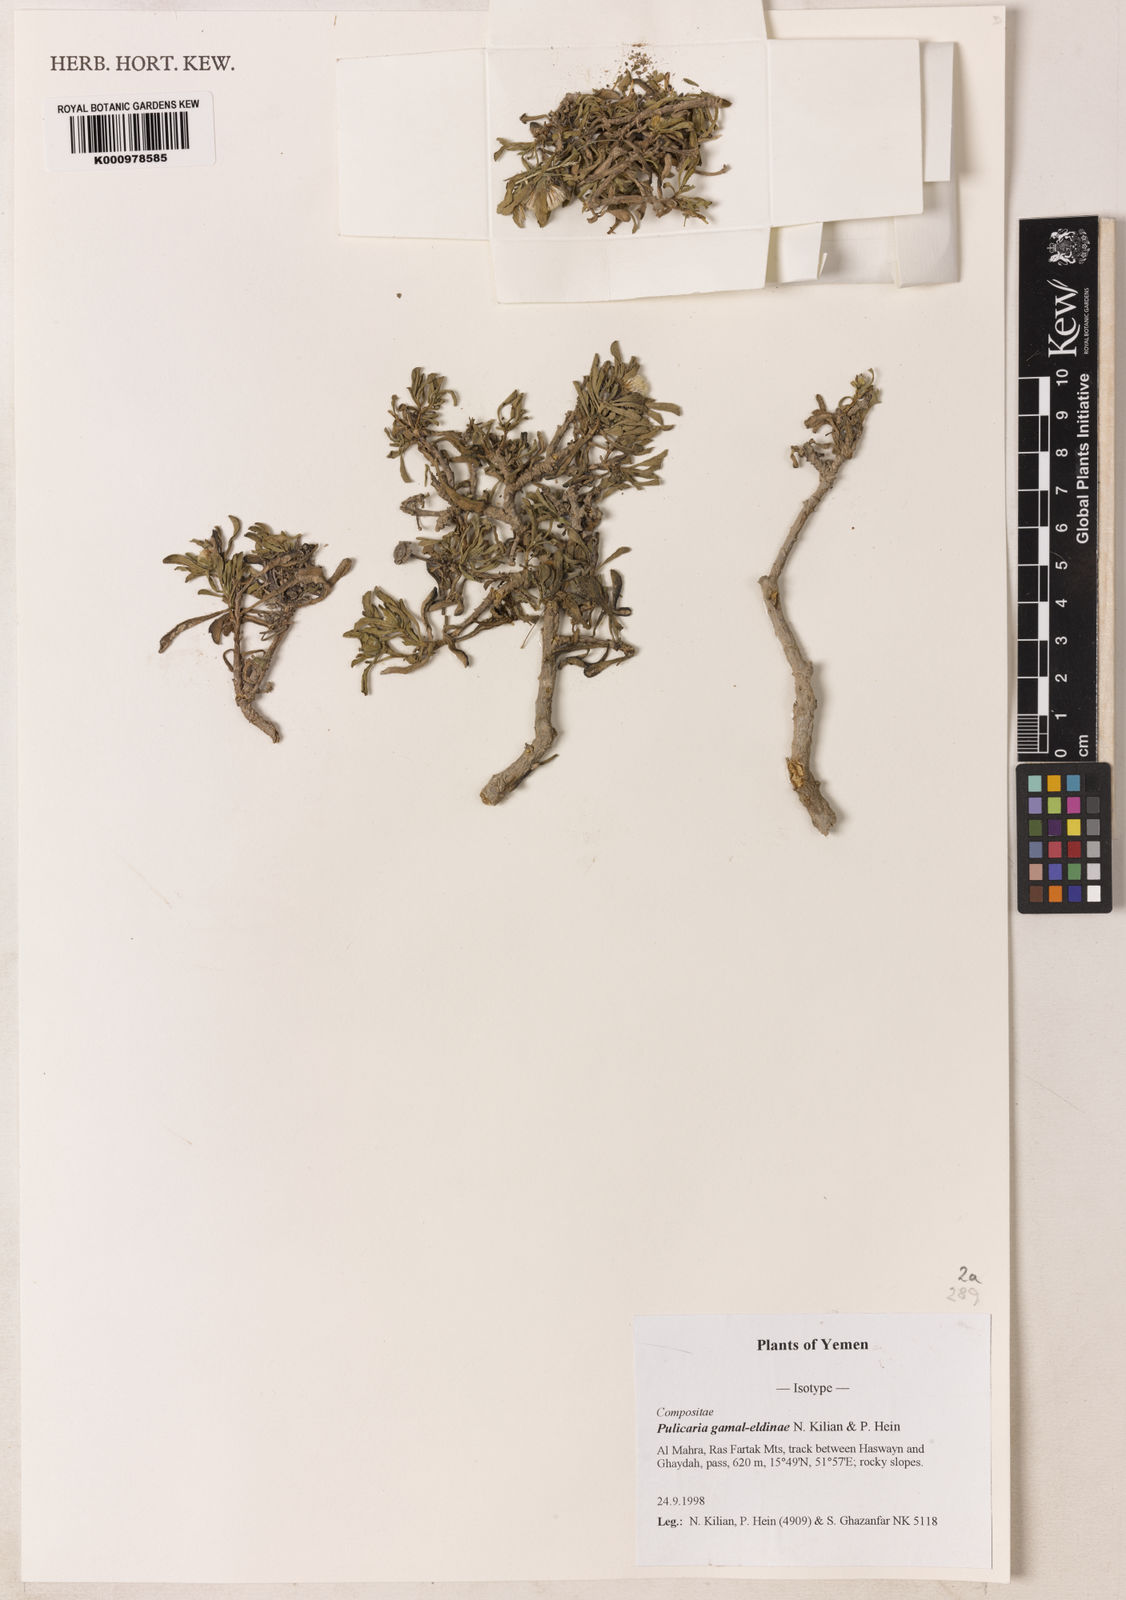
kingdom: Plantae
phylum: Tracheophyta
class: Magnoliopsida
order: Asterales
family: Asteraceae
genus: Pulicaria
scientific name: Pulicaria gamal-eldiniae
